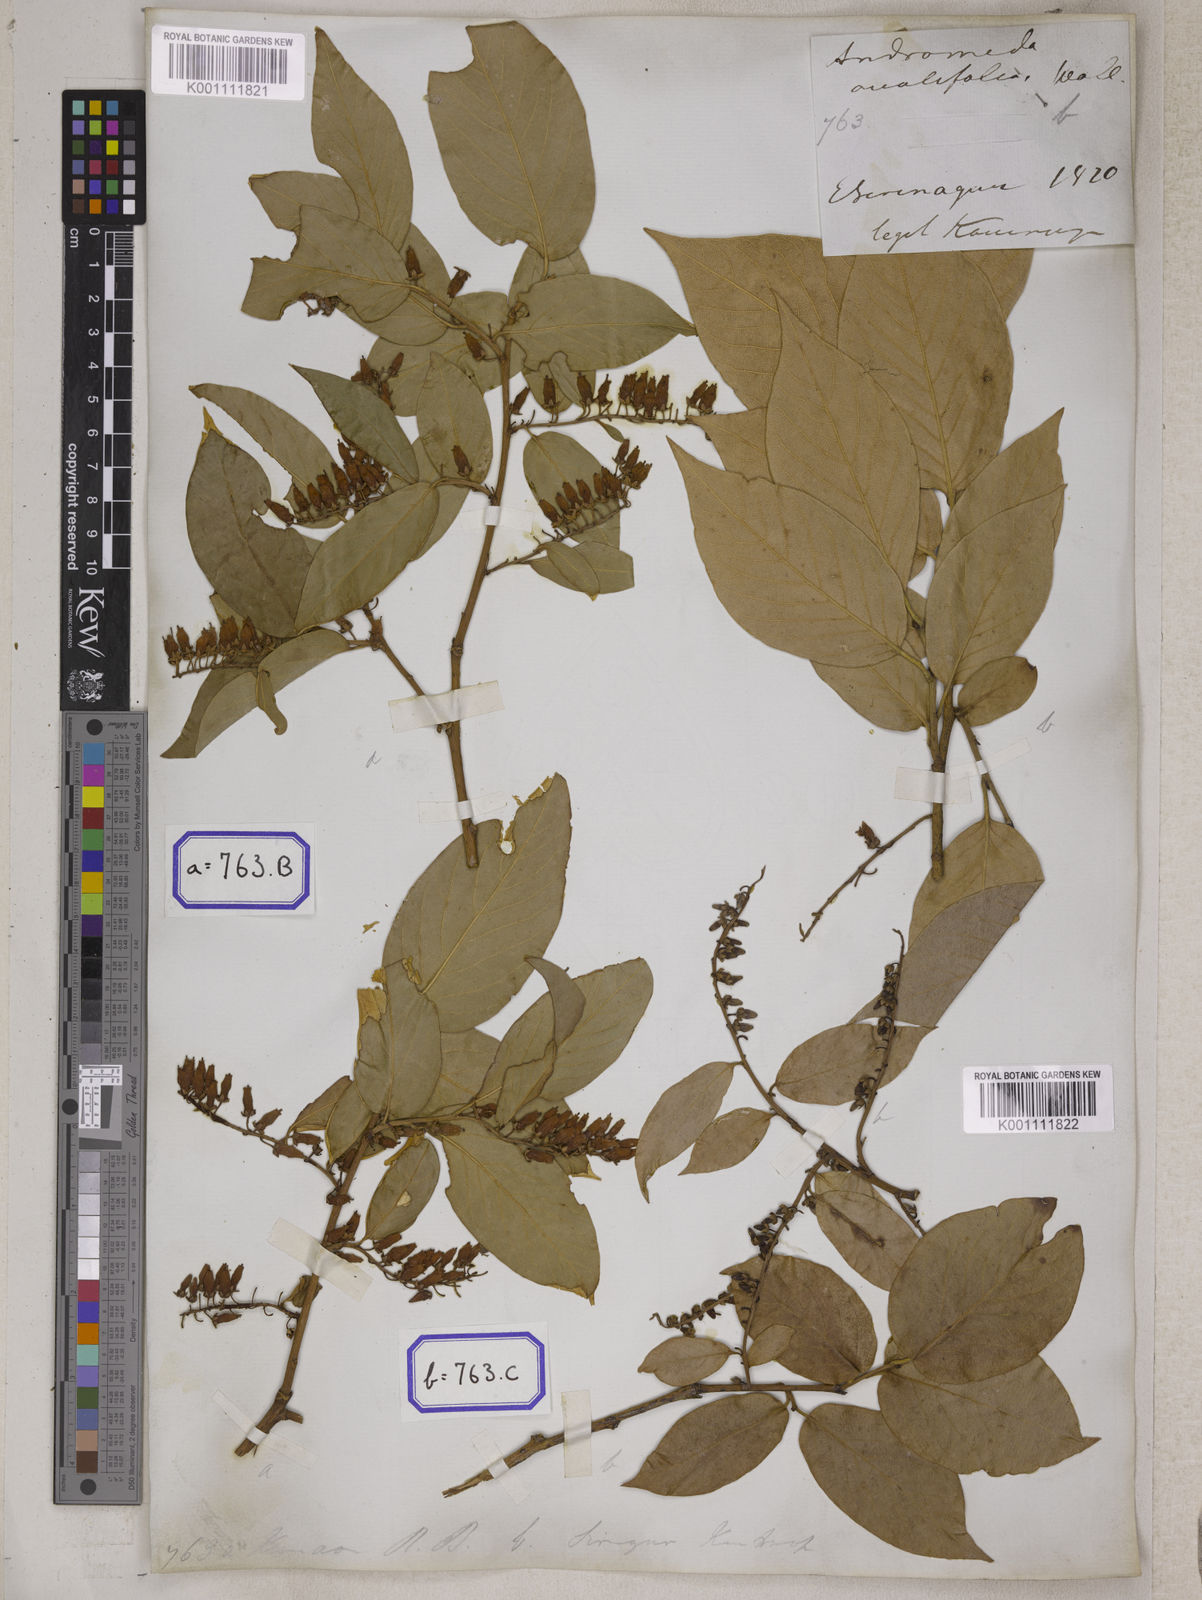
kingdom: Plantae
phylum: Tracheophyta
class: Magnoliopsida
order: Ericales
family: Ericaceae
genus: Lyonia
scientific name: Lyonia ovalifolia
